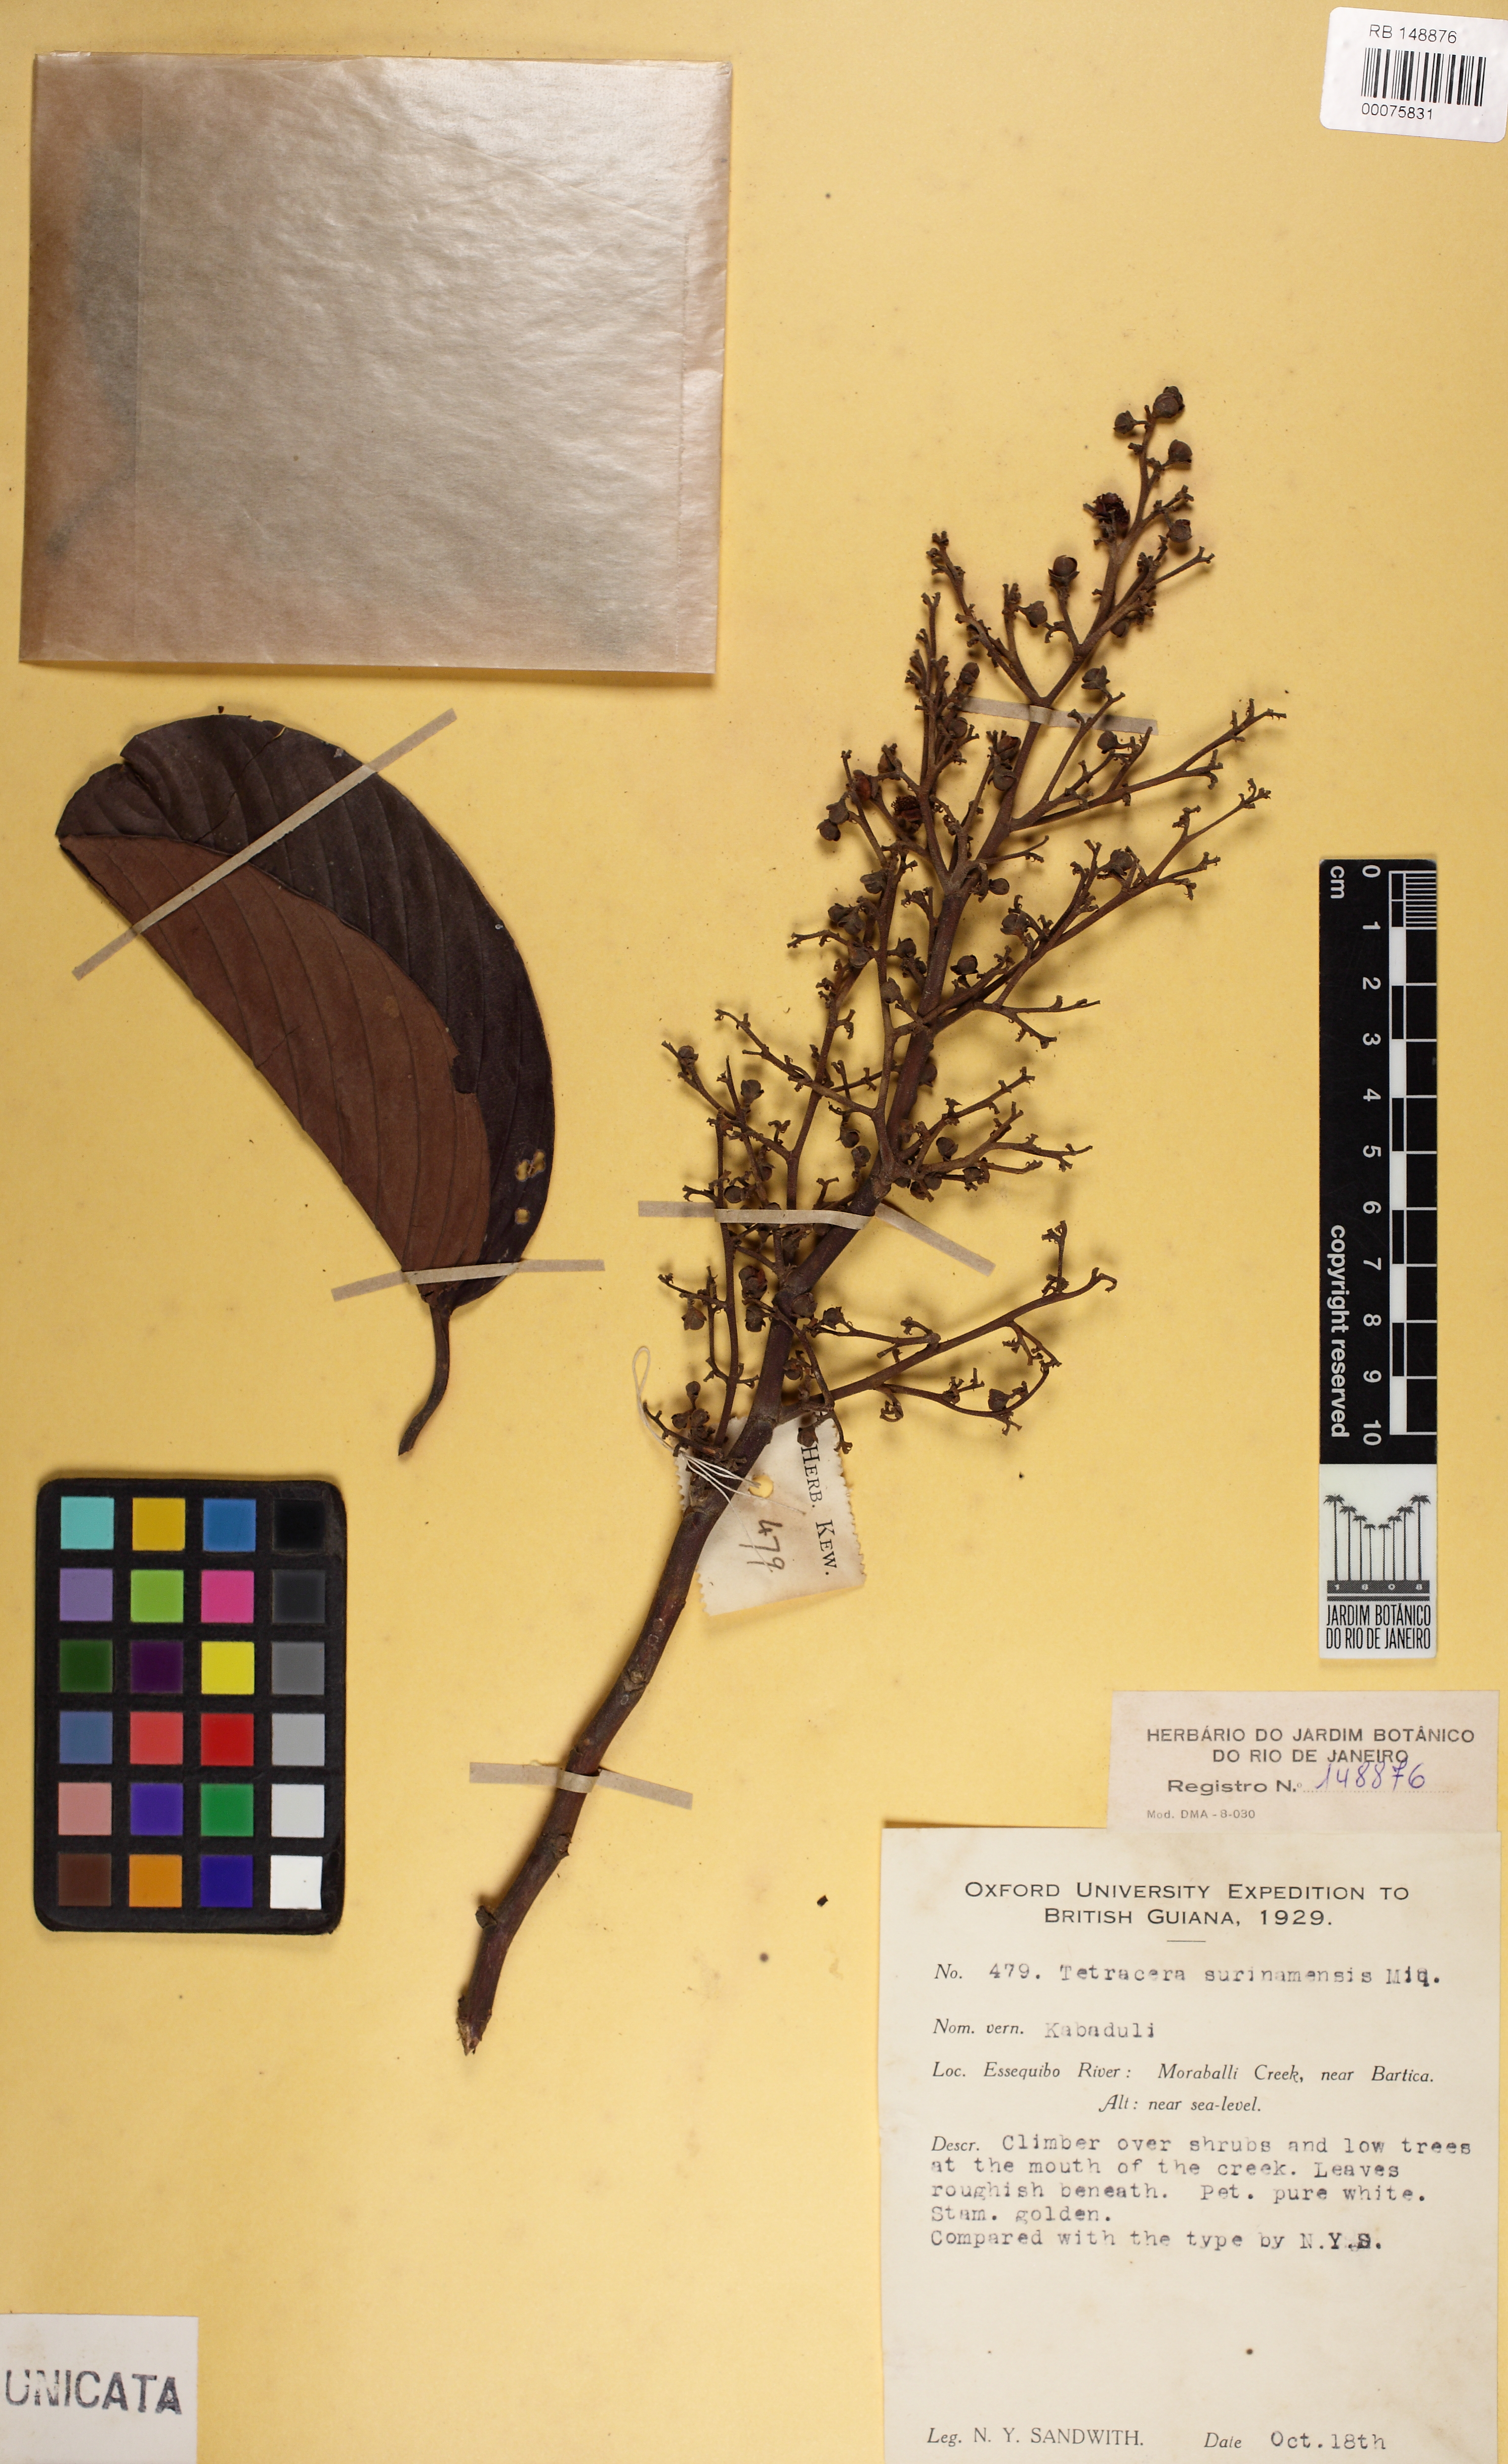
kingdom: Plantae
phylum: Tracheophyta
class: Magnoliopsida
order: Dilleniales
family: Dilleniaceae
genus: Tetracera
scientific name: Tetracera surinamensis
